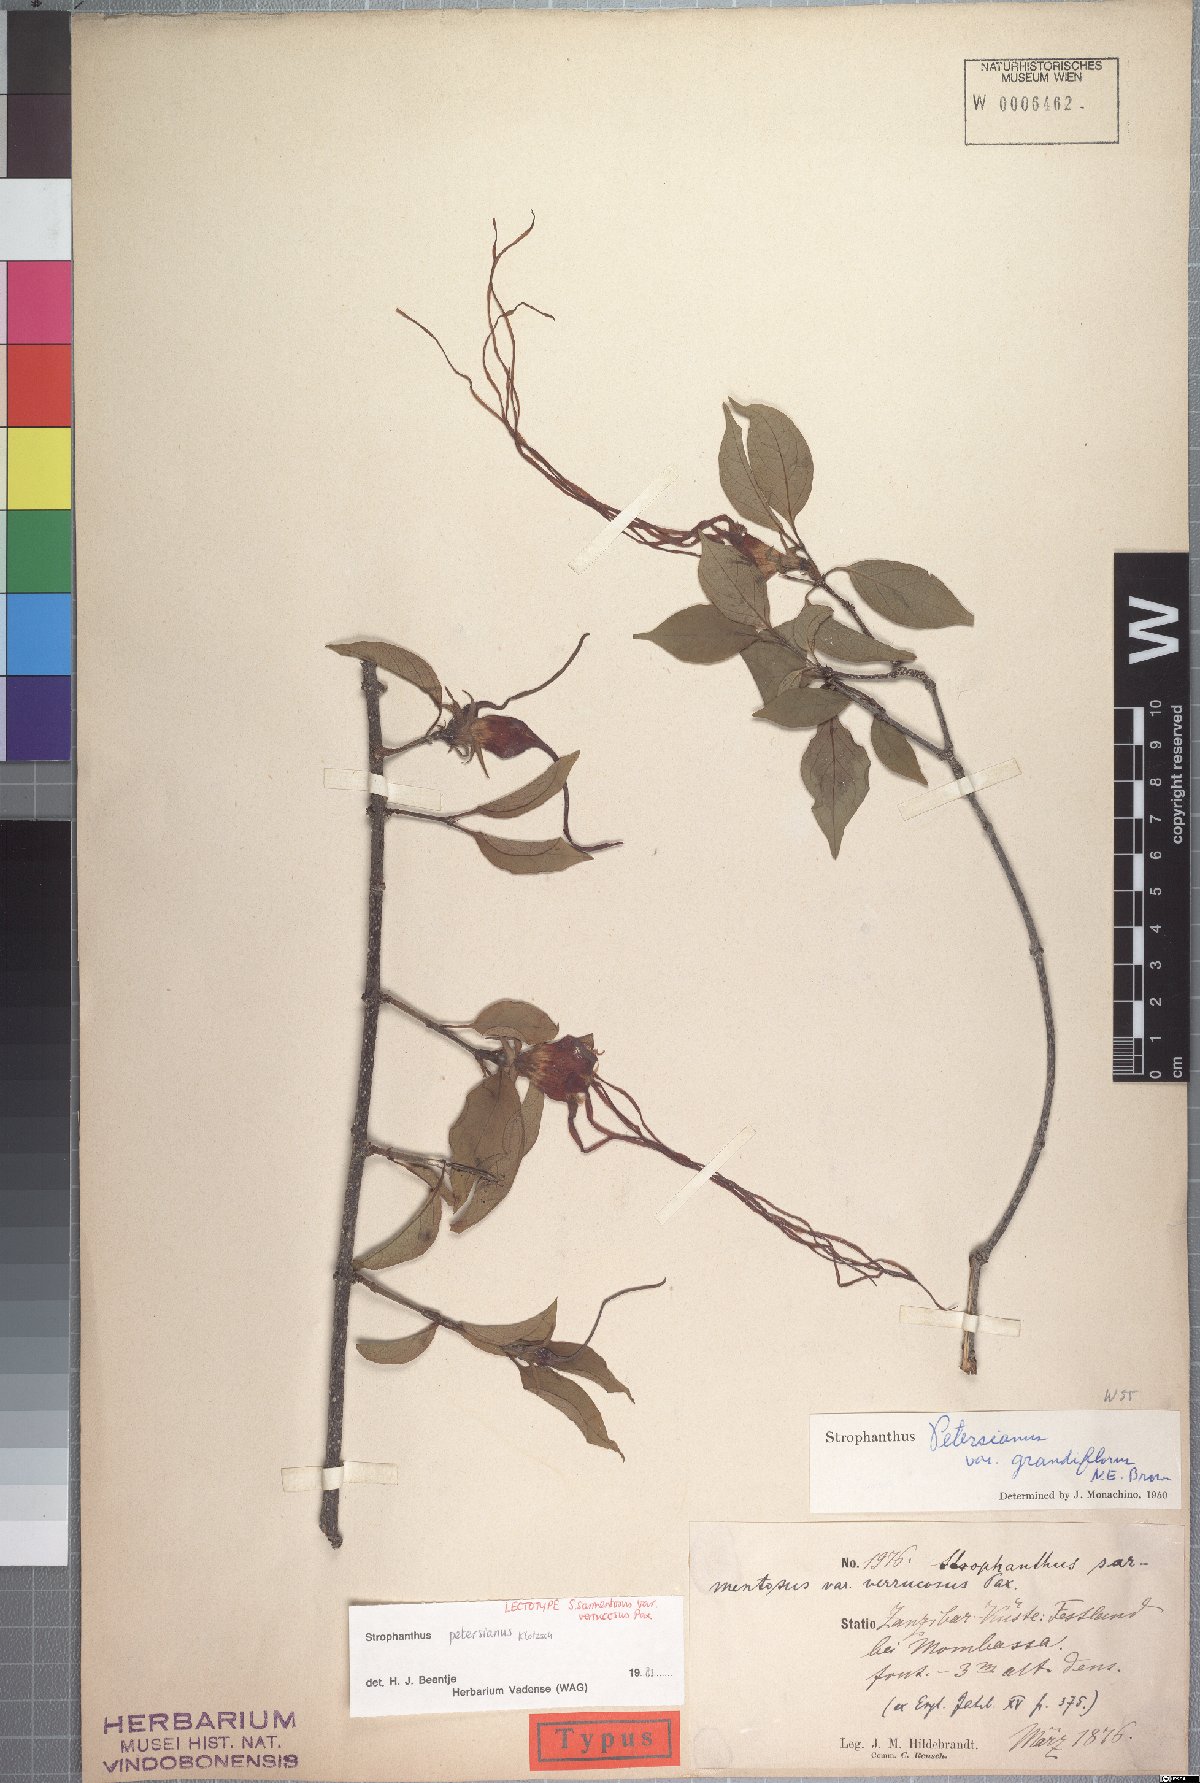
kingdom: Plantae
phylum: Tracheophyta
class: Magnoliopsida
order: Gentianales
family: Apocynaceae
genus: Strophanthus
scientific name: Strophanthus petersianus
